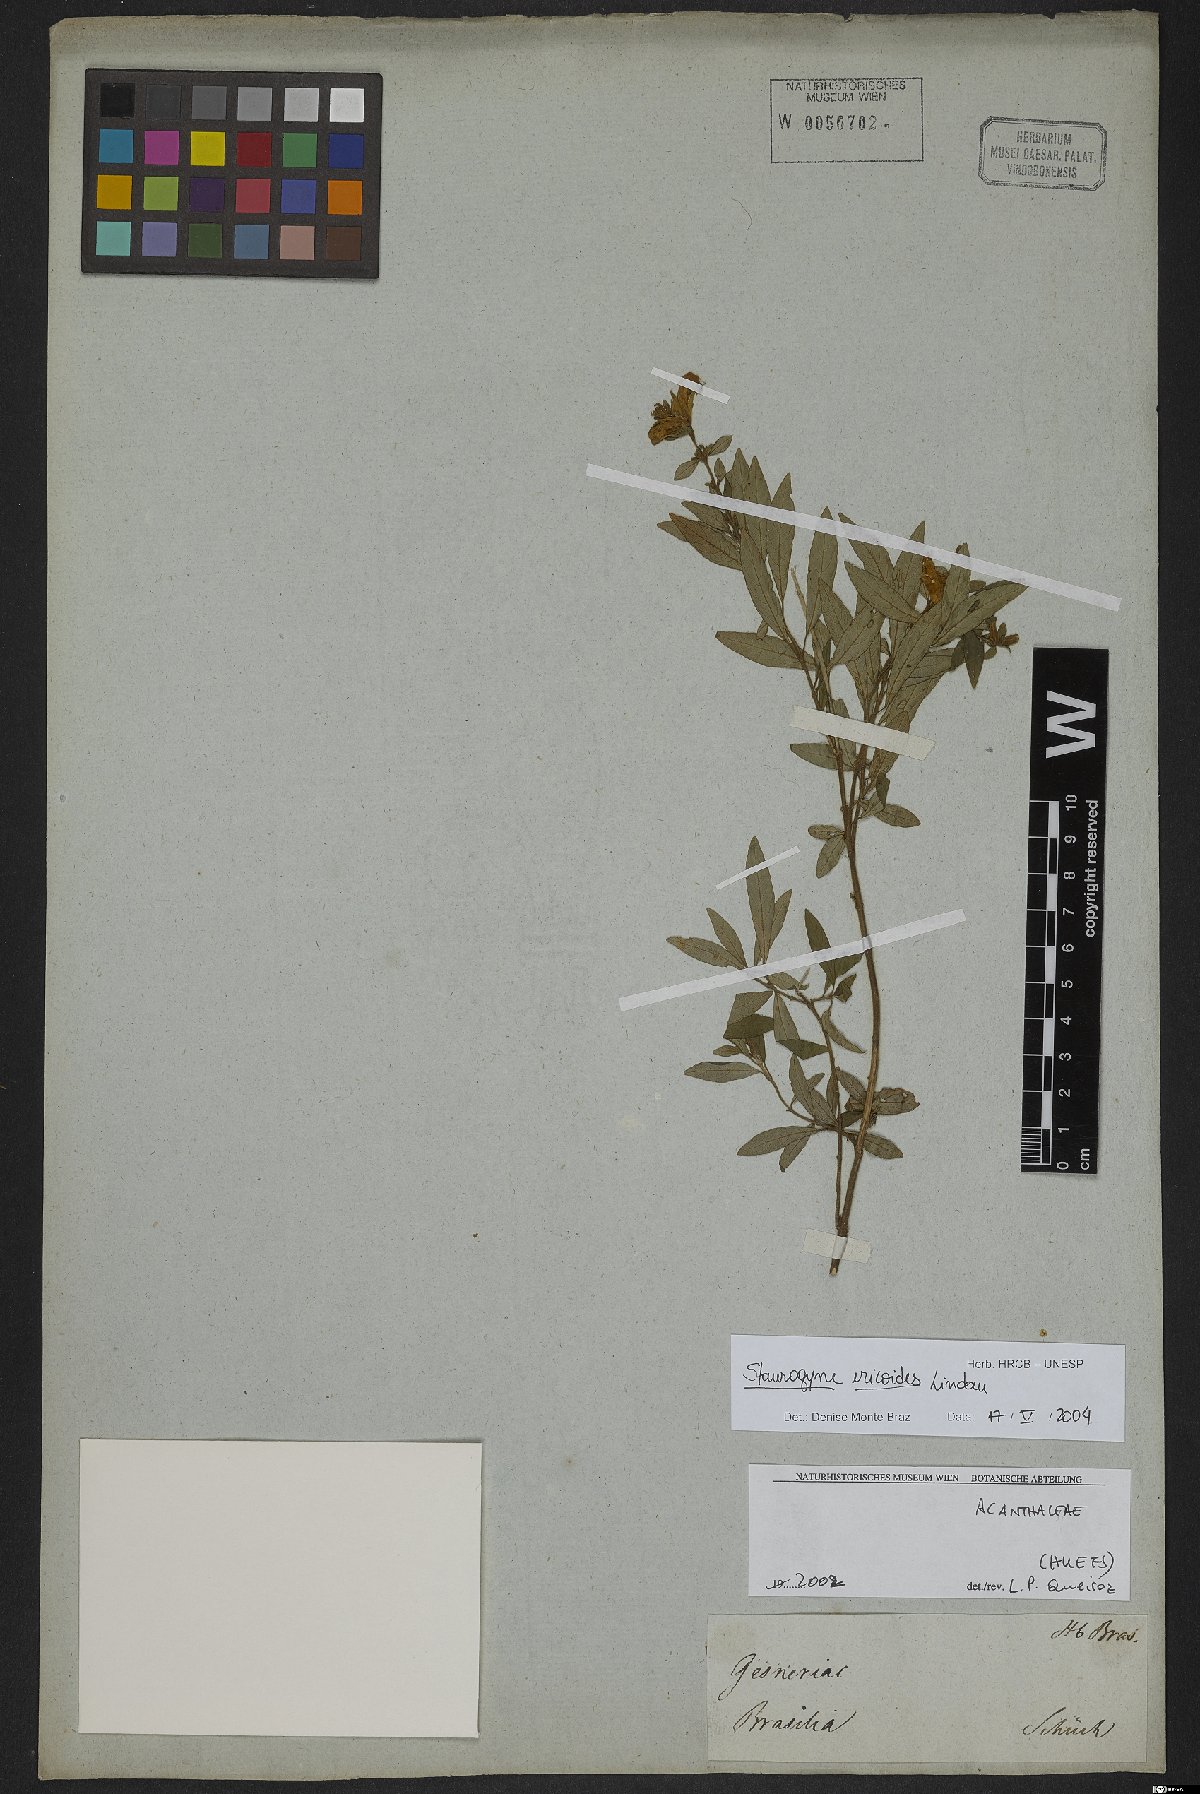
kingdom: Plantae
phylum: Tracheophyta
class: Magnoliopsida
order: Lamiales
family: Acanthaceae
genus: Staurogyne
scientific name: Staurogyne ericoides
